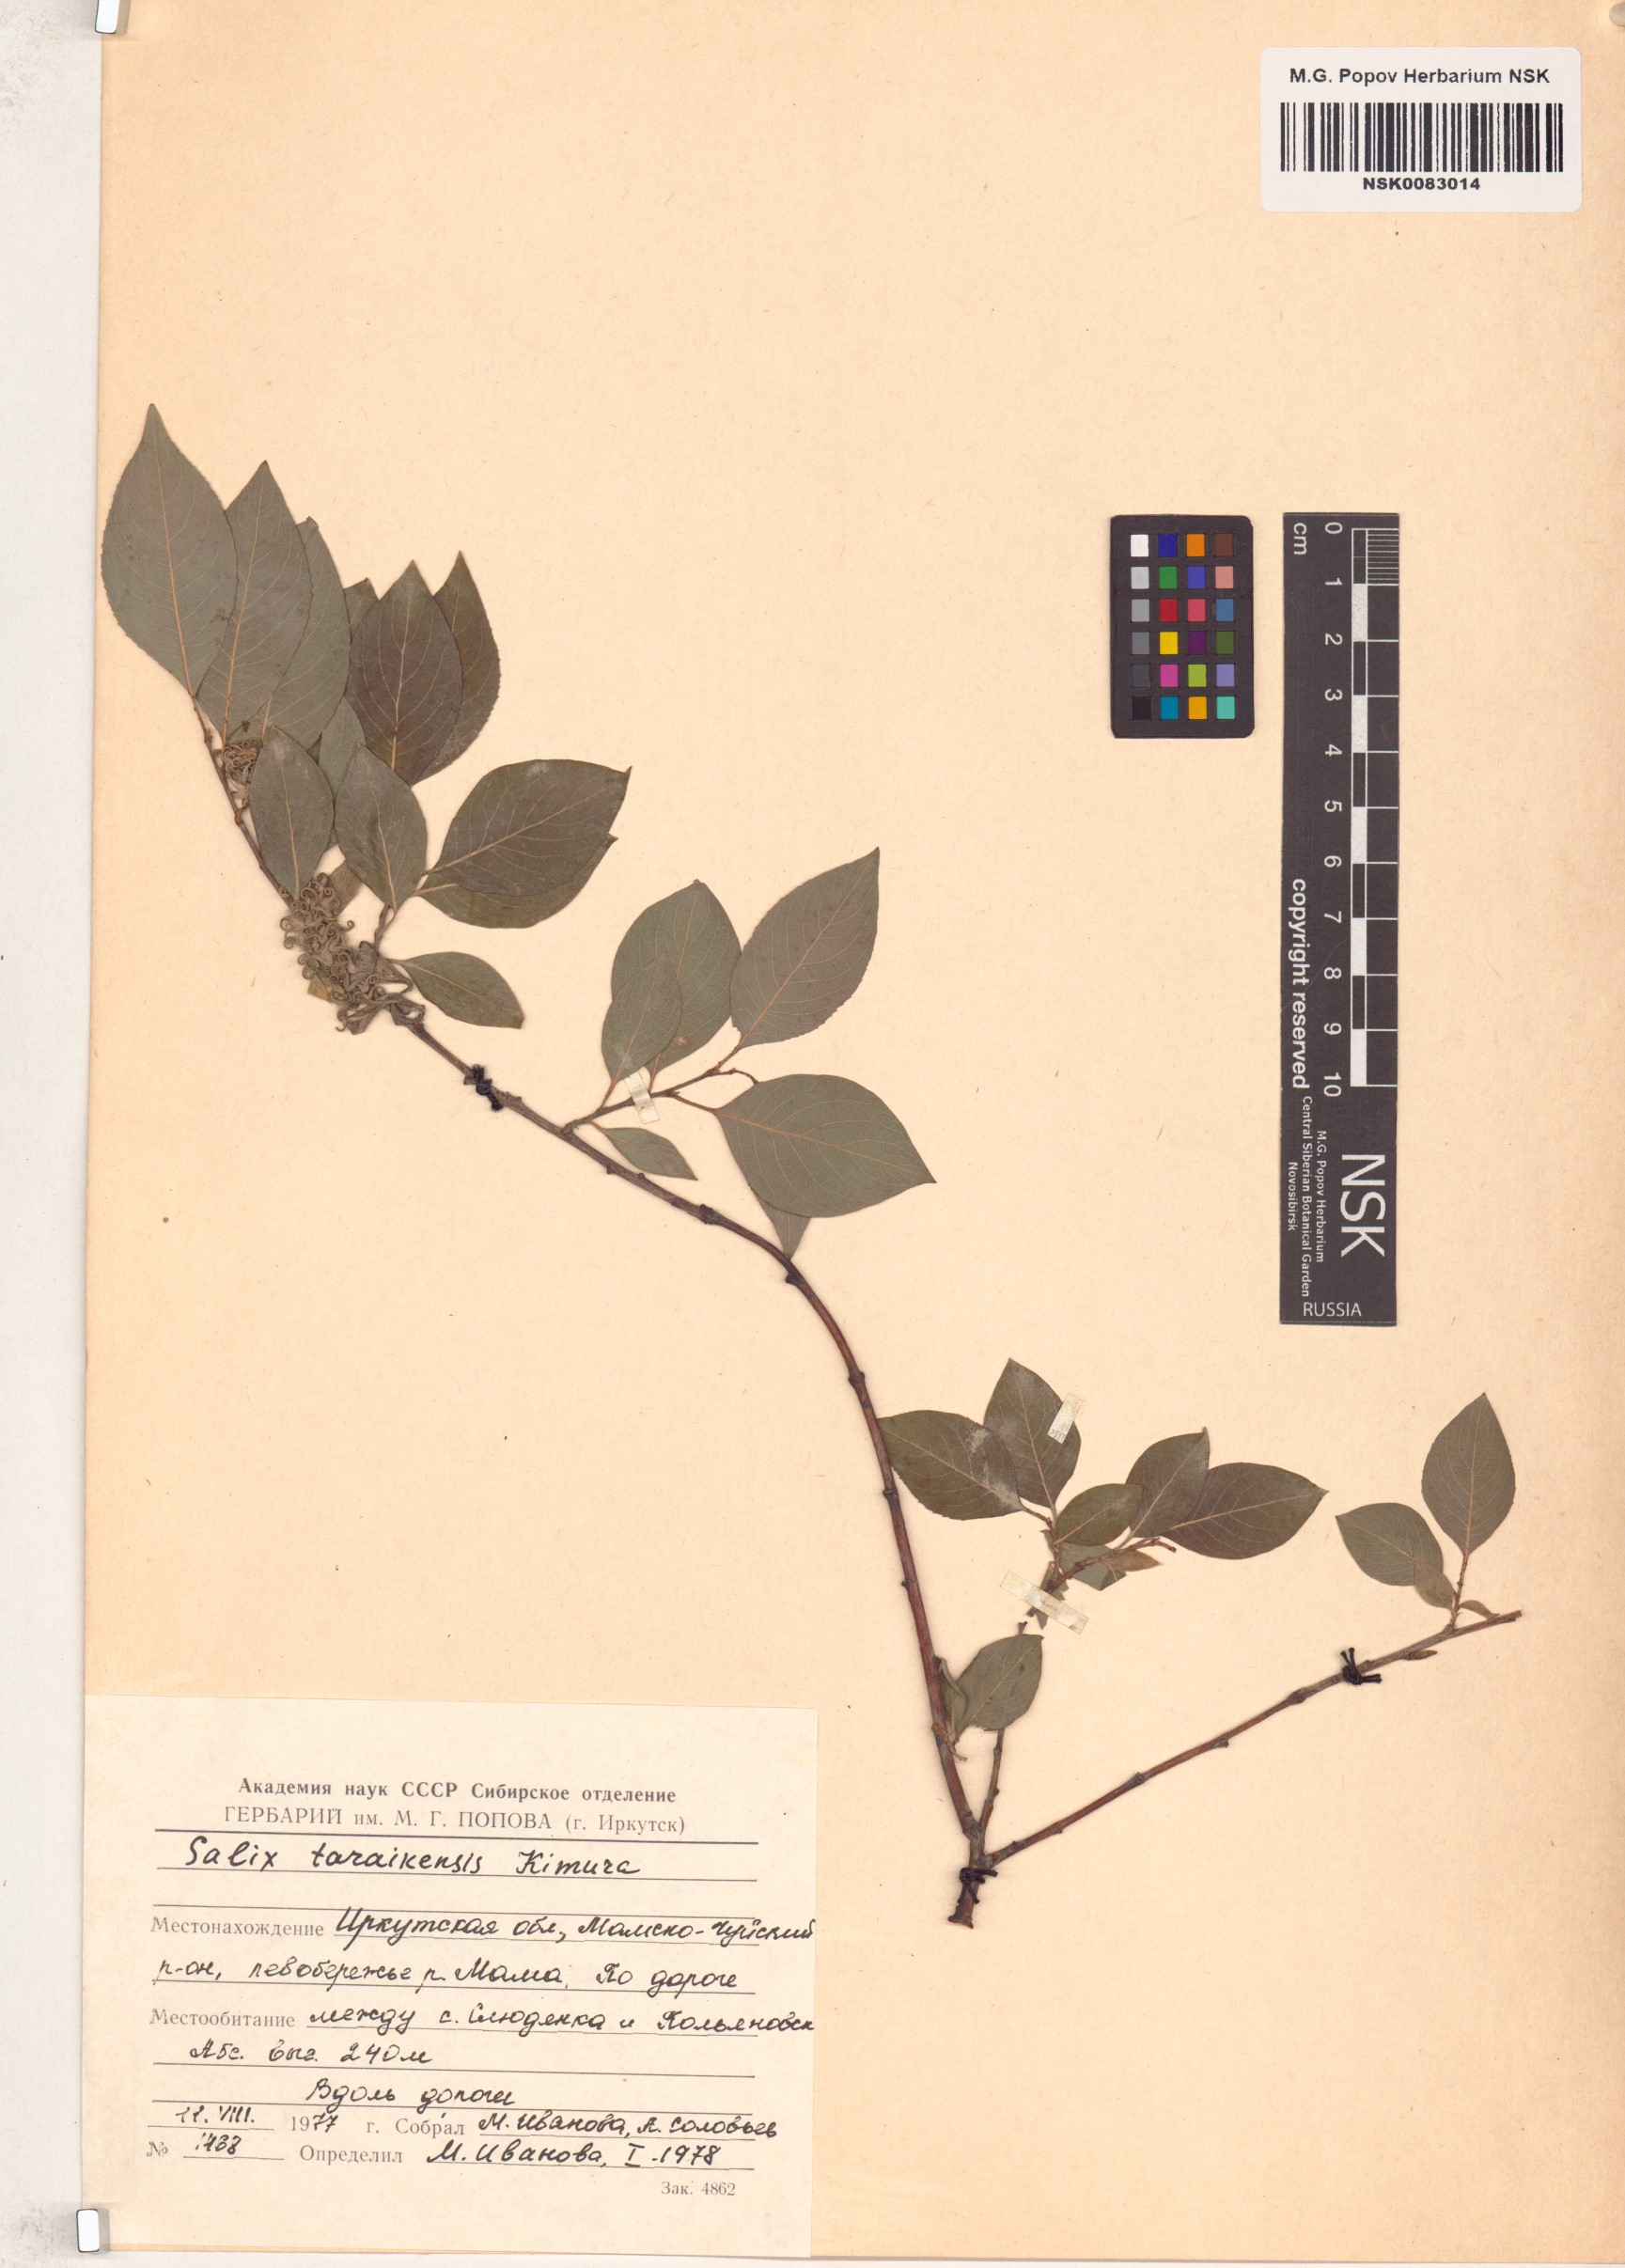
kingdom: Plantae
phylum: Tracheophyta
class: Magnoliopsida
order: Malpighiales
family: Salicaceae
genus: Salix
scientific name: Salix taraikensis
